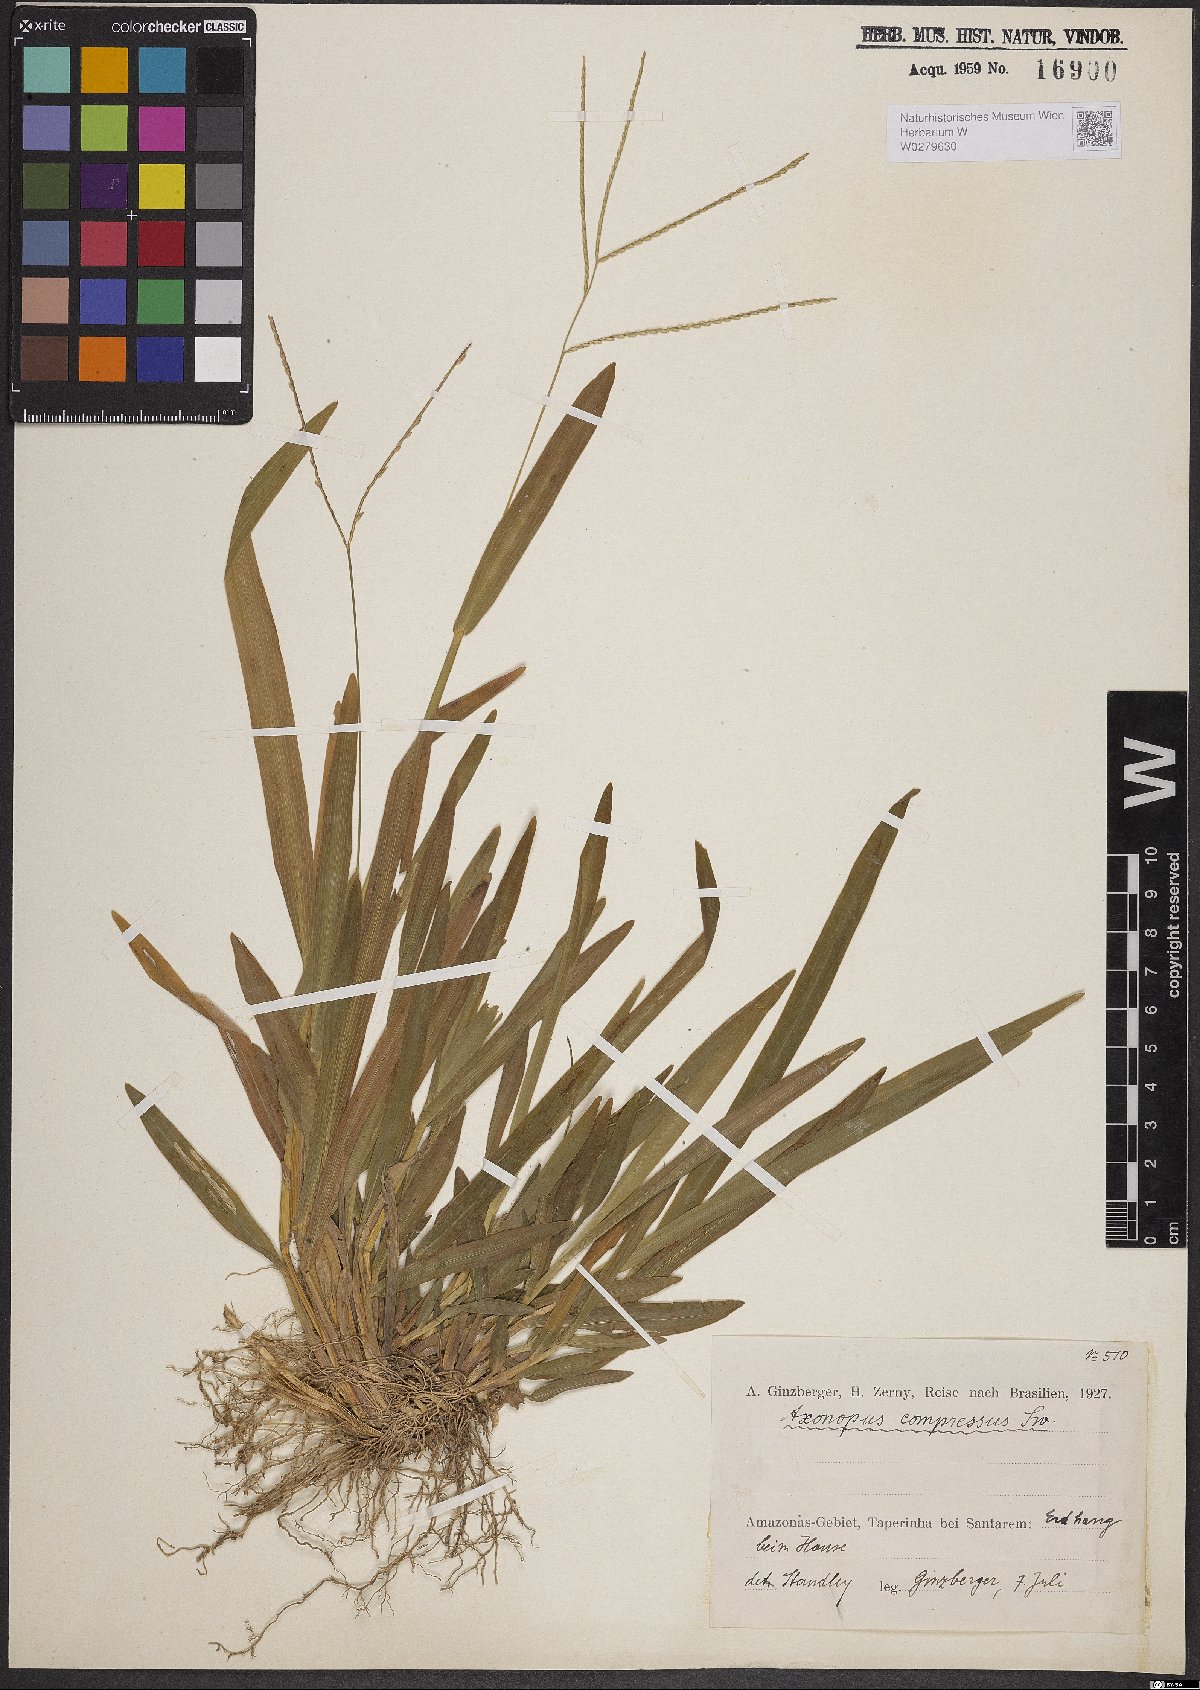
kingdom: Plantae
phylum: Tracheophyta
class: Liliopsida
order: Poales
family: Poaceae
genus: Axonopus
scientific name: Axonopus compressus
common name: American carpet grass
